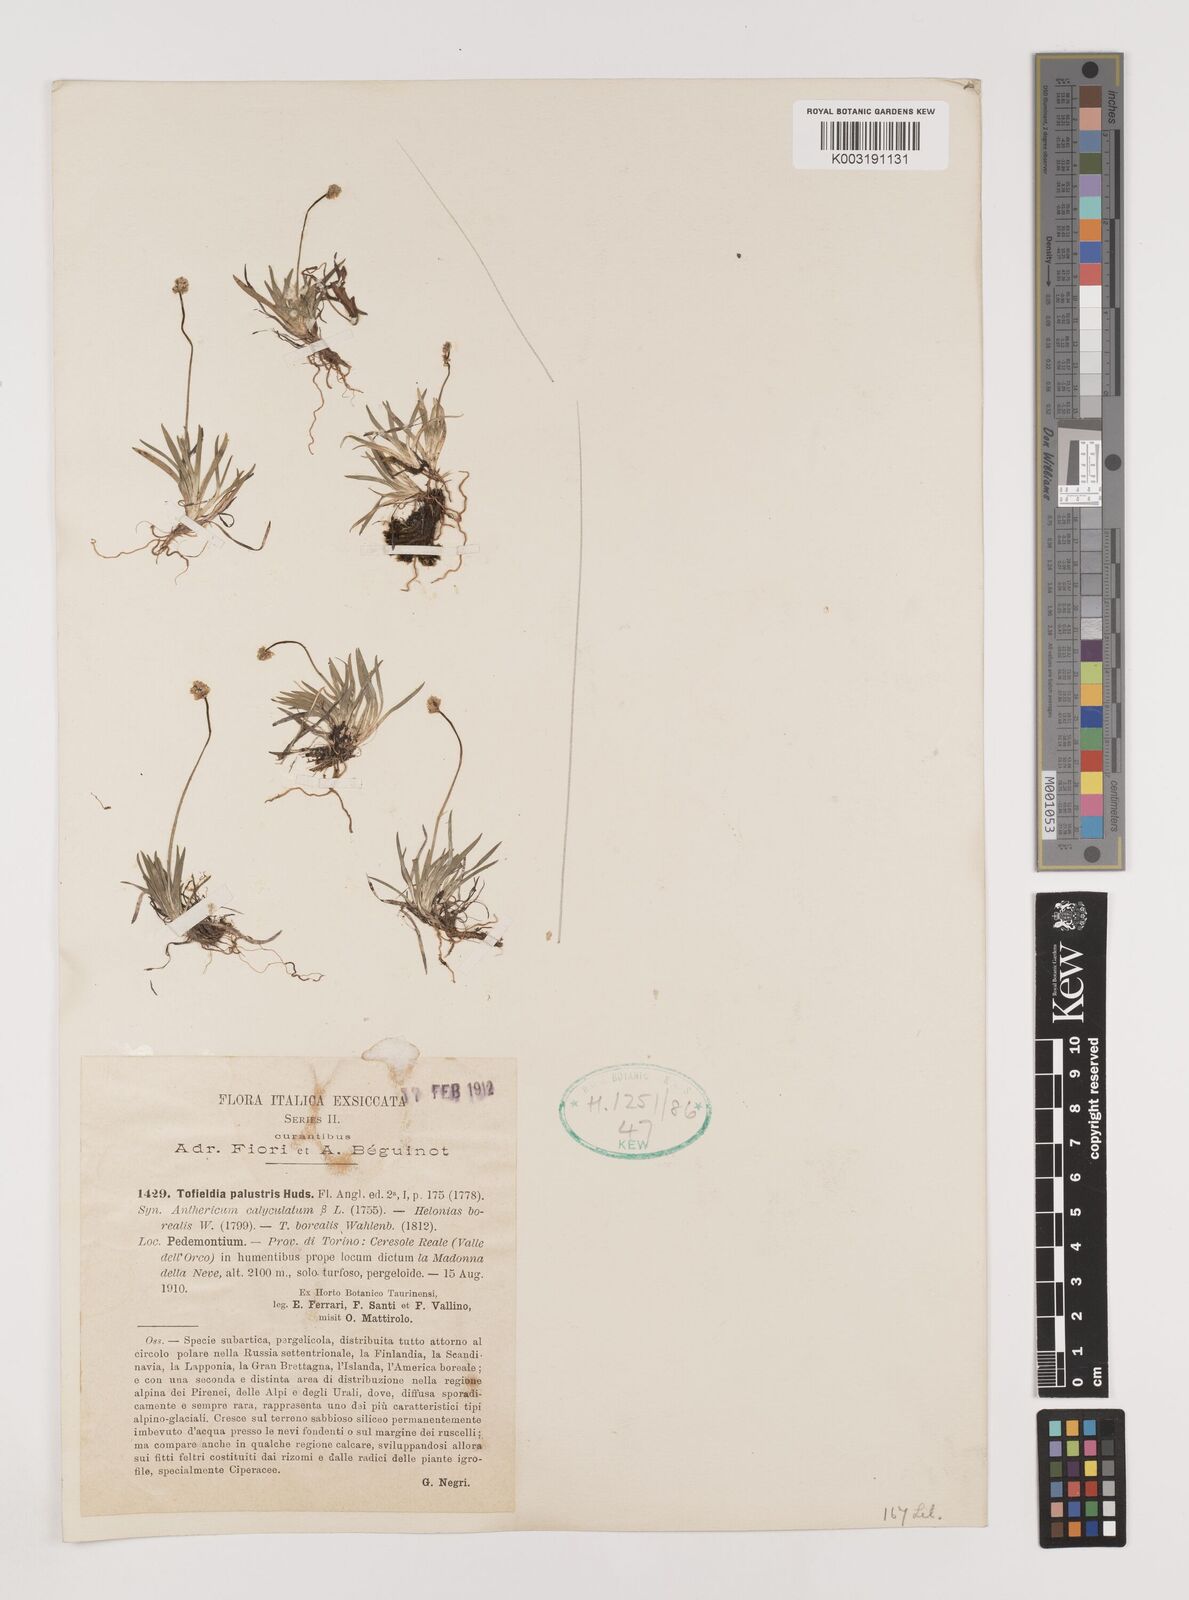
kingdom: Plantae
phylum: Tracheophyta
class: Liliopsida
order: Alismatales
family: Tofieldiaceae
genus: Tofieldia
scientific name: Tofieldia pusilla
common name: Scottish false asphodel
